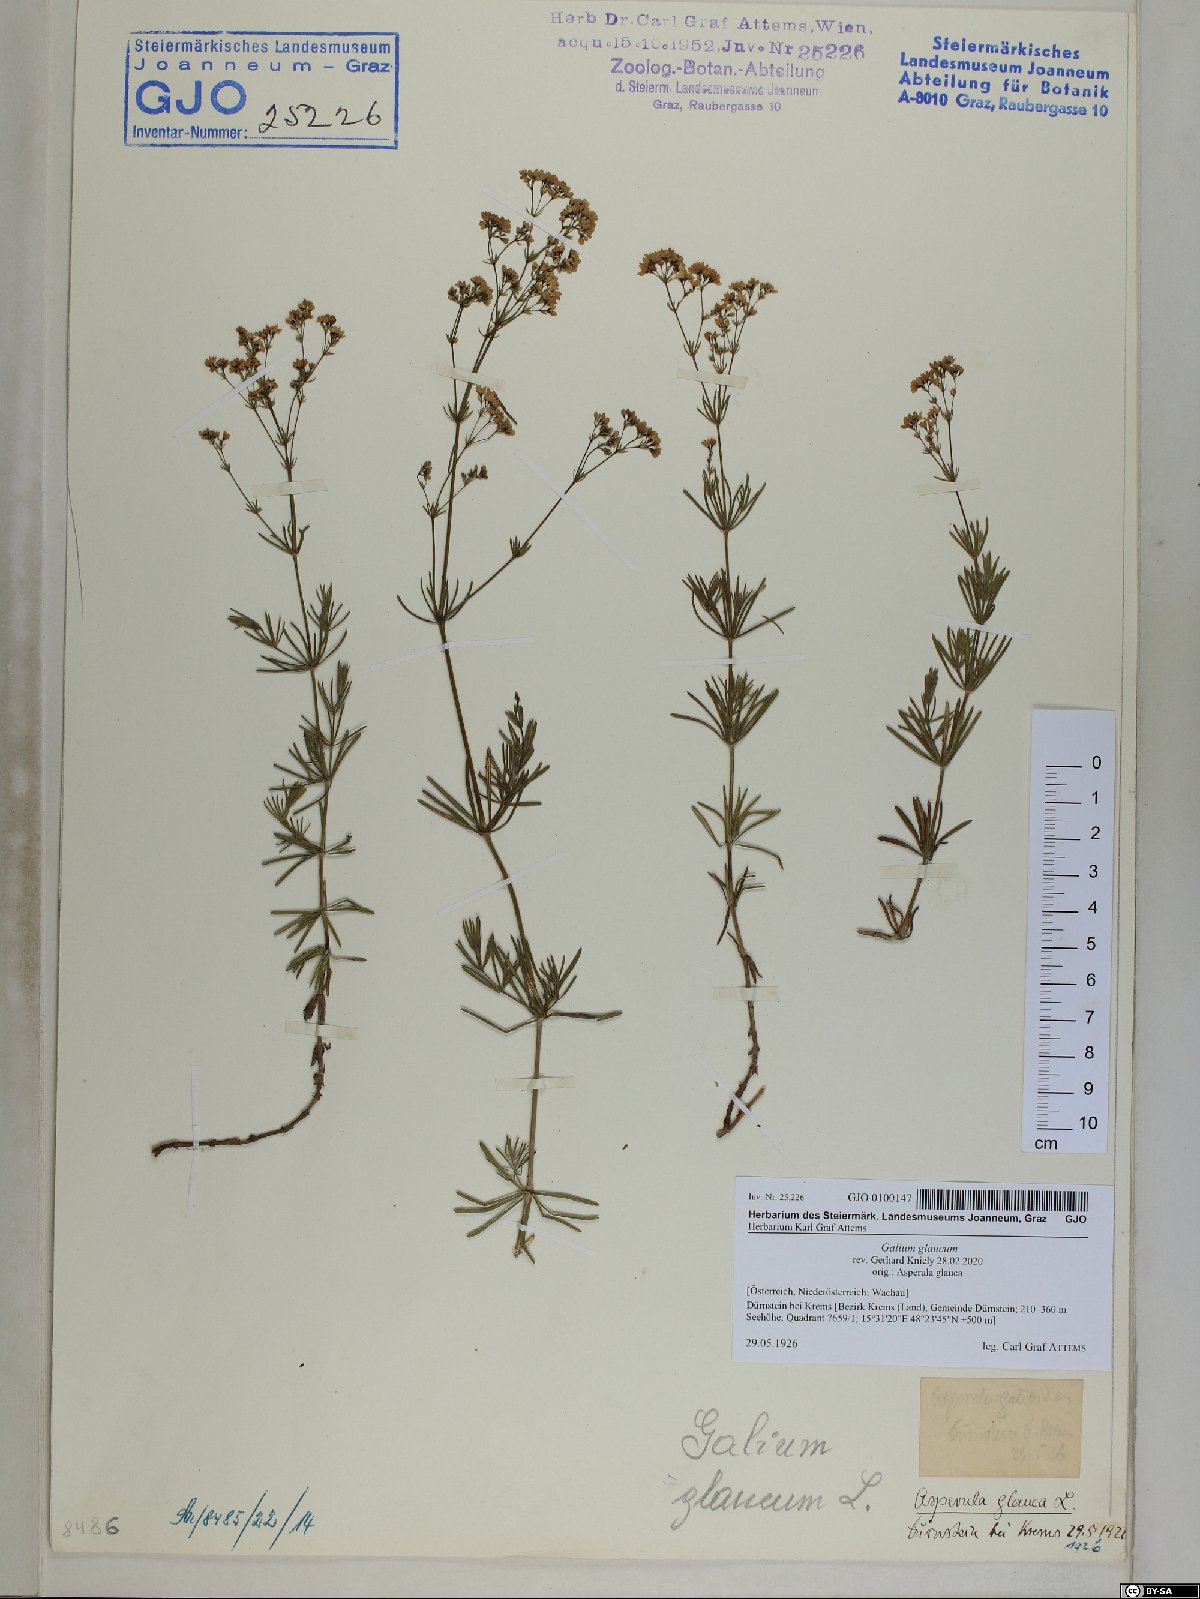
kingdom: Plantae
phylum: Tracheophyta
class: Magnoliopsida
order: Gentianales
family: Rubiaceae
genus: Galium
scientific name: Galium glaucum
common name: Waxy bedstraw
